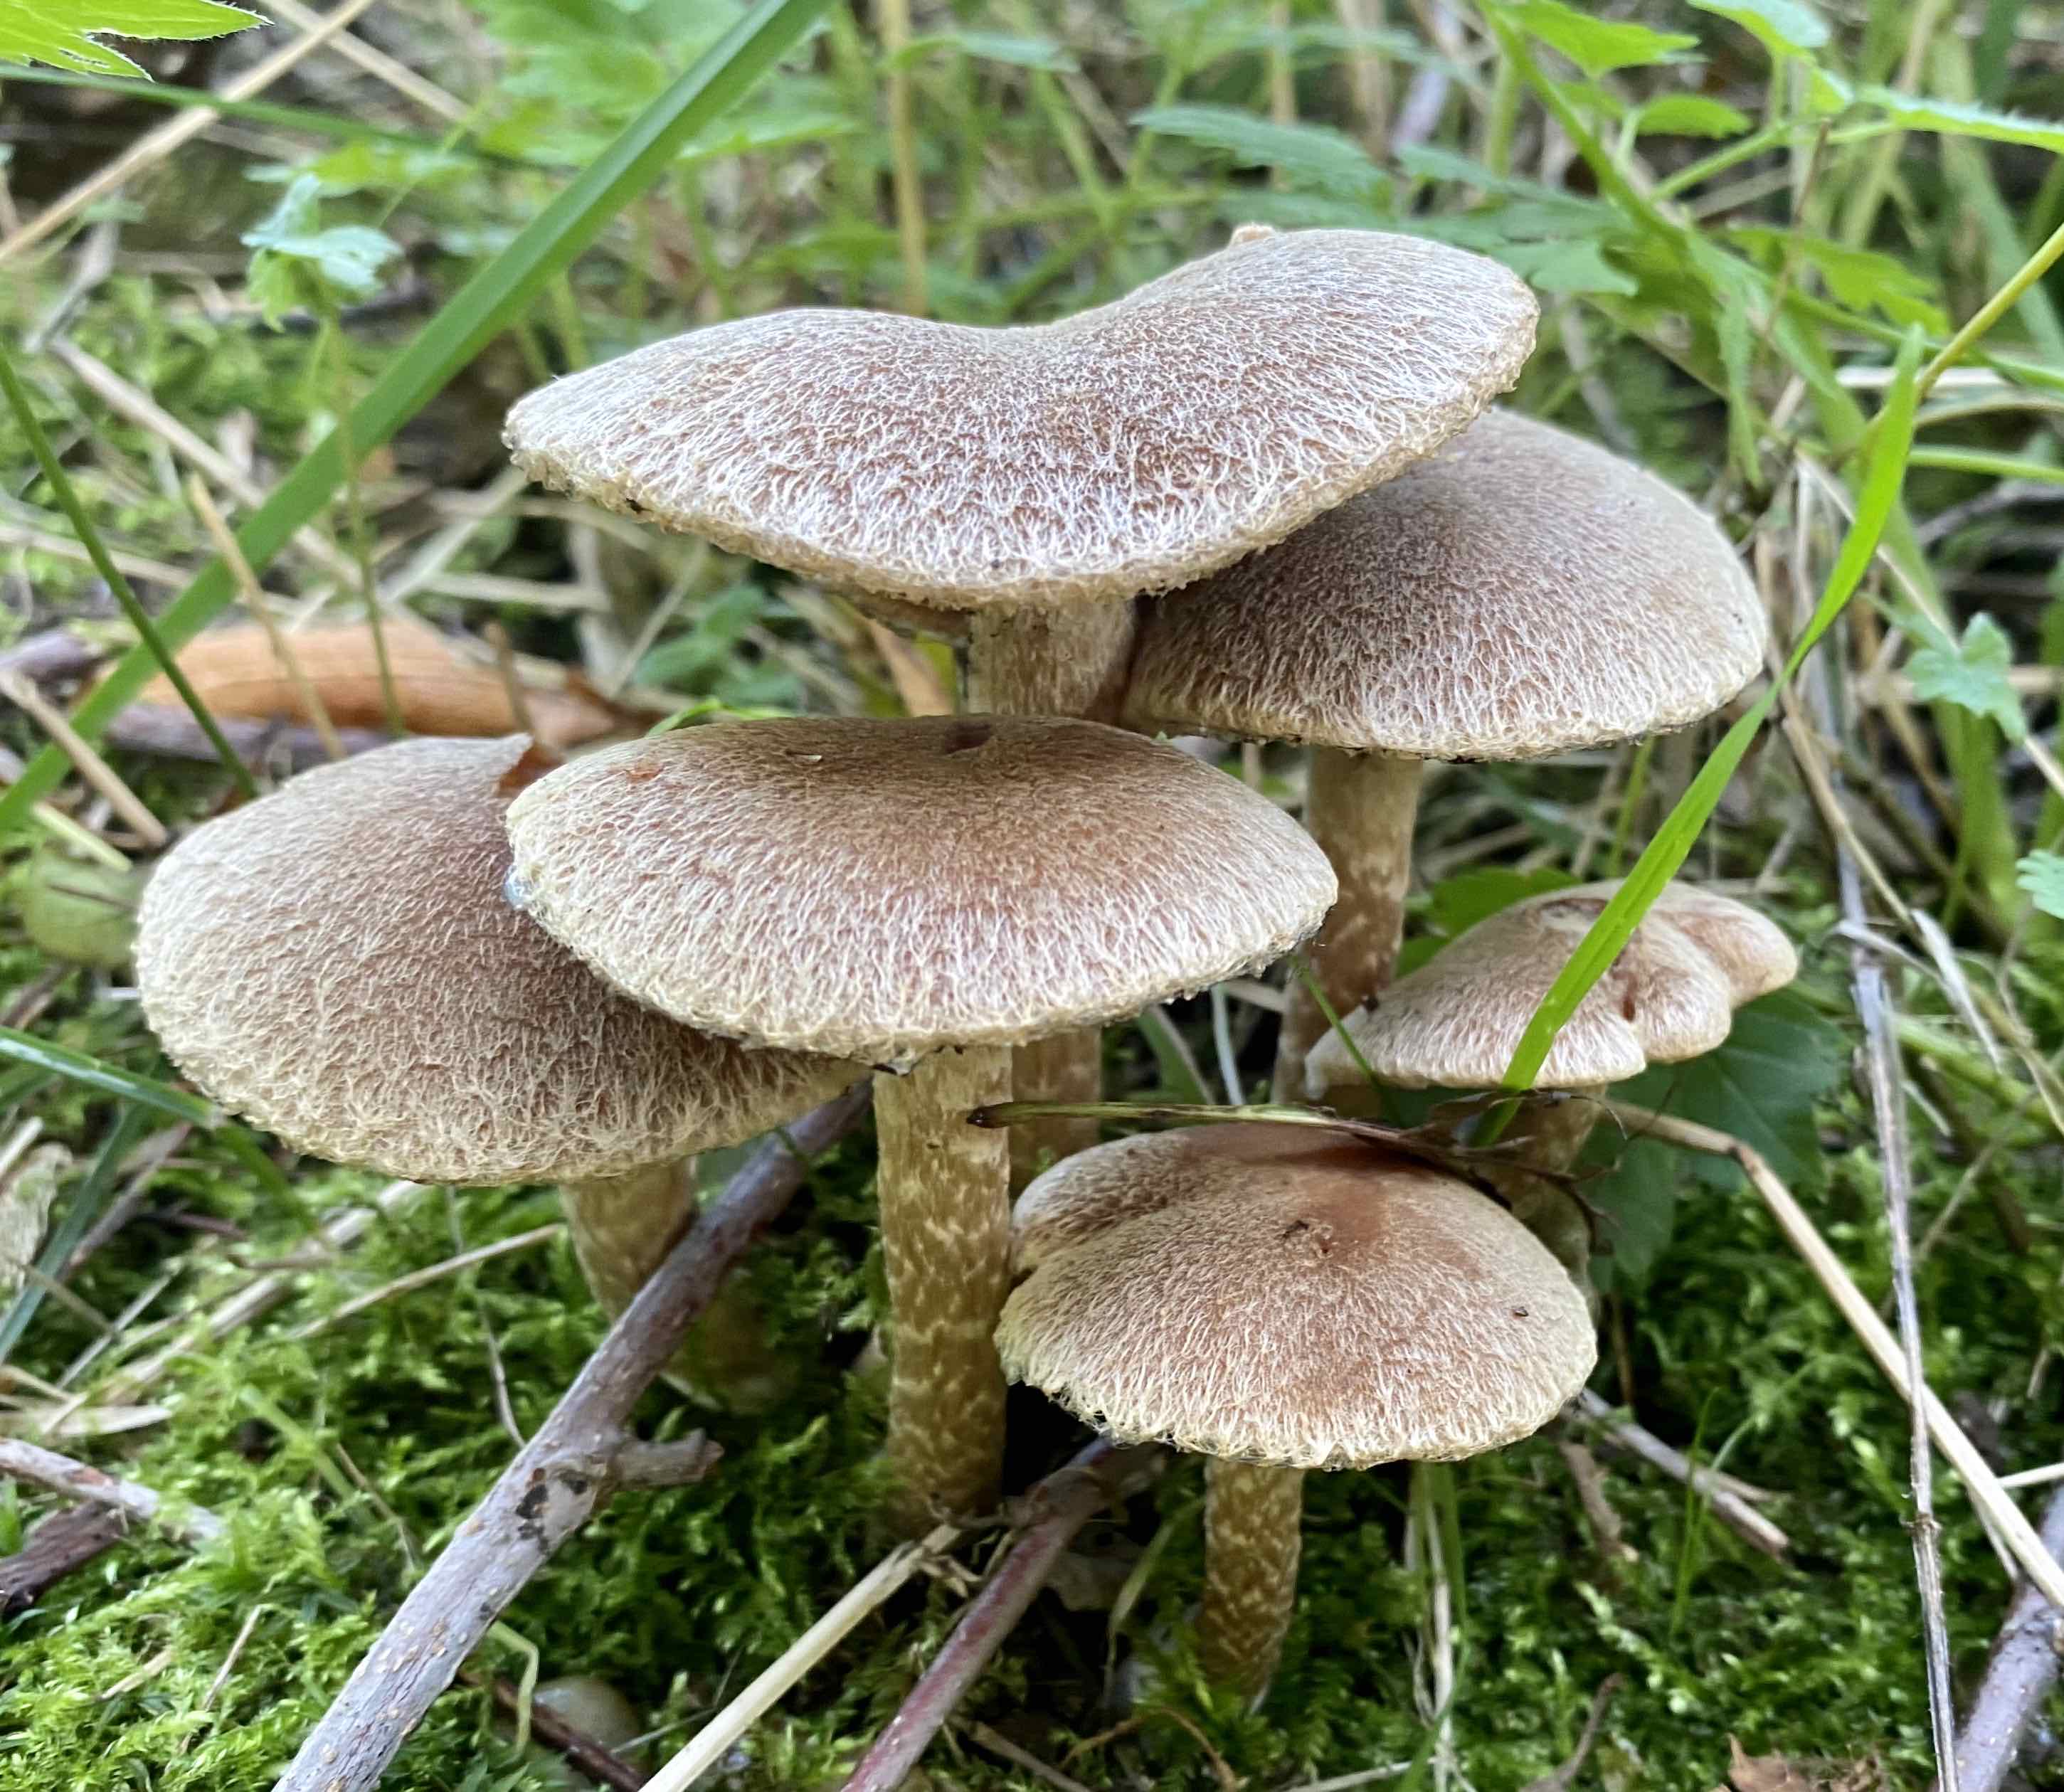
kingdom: Fungi
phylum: Basidiomycota
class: Agaricomycetes
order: Agaricales
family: Psathyrellaceae
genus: Lacrymaria
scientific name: Lacrymaria lacrymabunda
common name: grædende mørkhat
